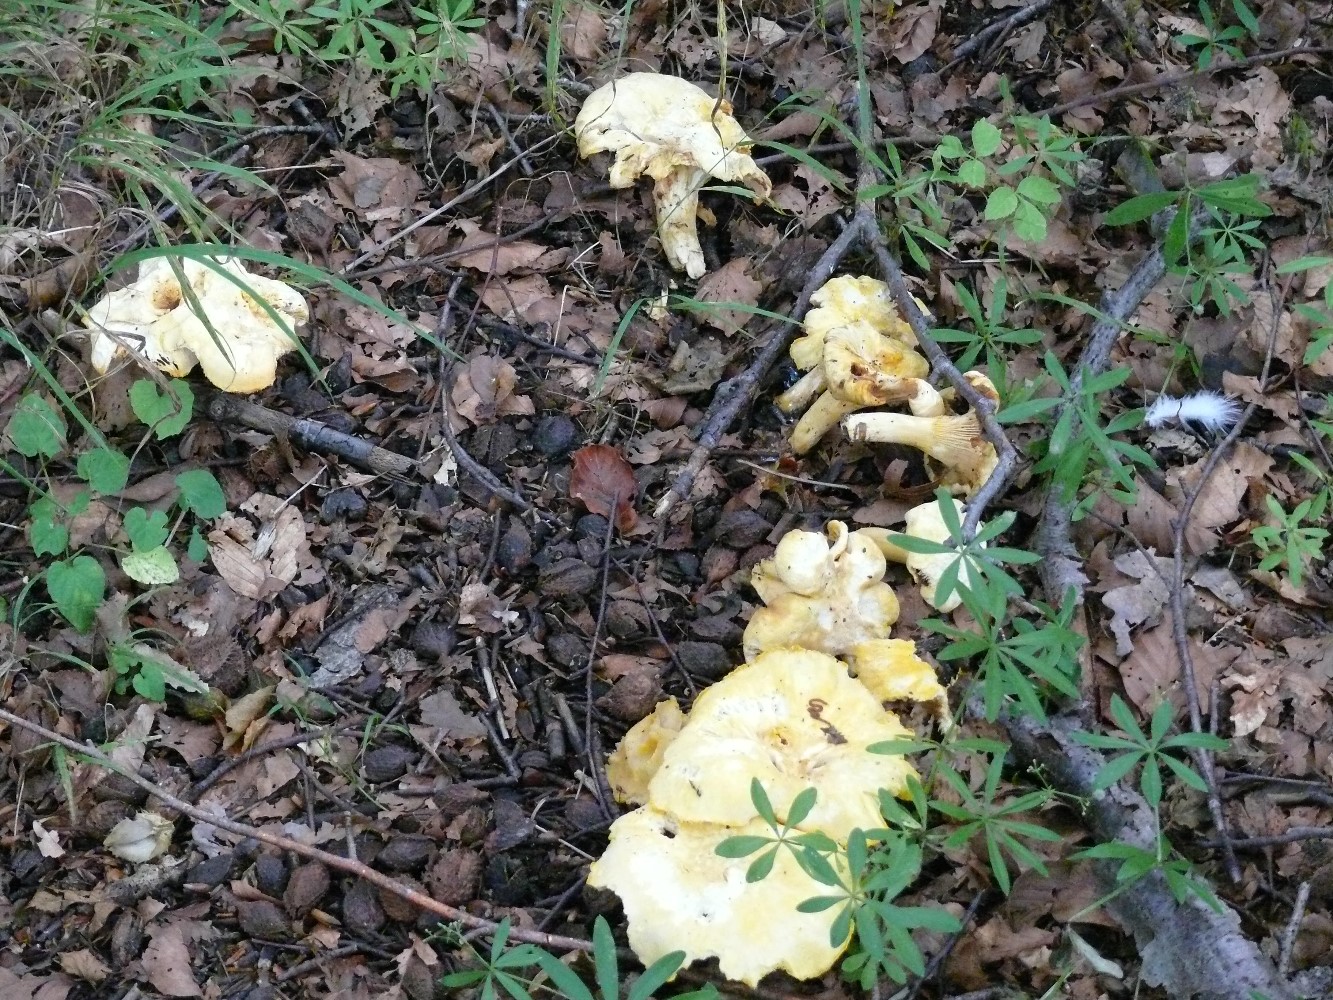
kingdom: Fungi
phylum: Basidiomycota
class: Agaricomycetes
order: Cantharellales
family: Hydnaceae
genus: Cantharellus
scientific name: Cantharellus pallens
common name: bleg kantarel
